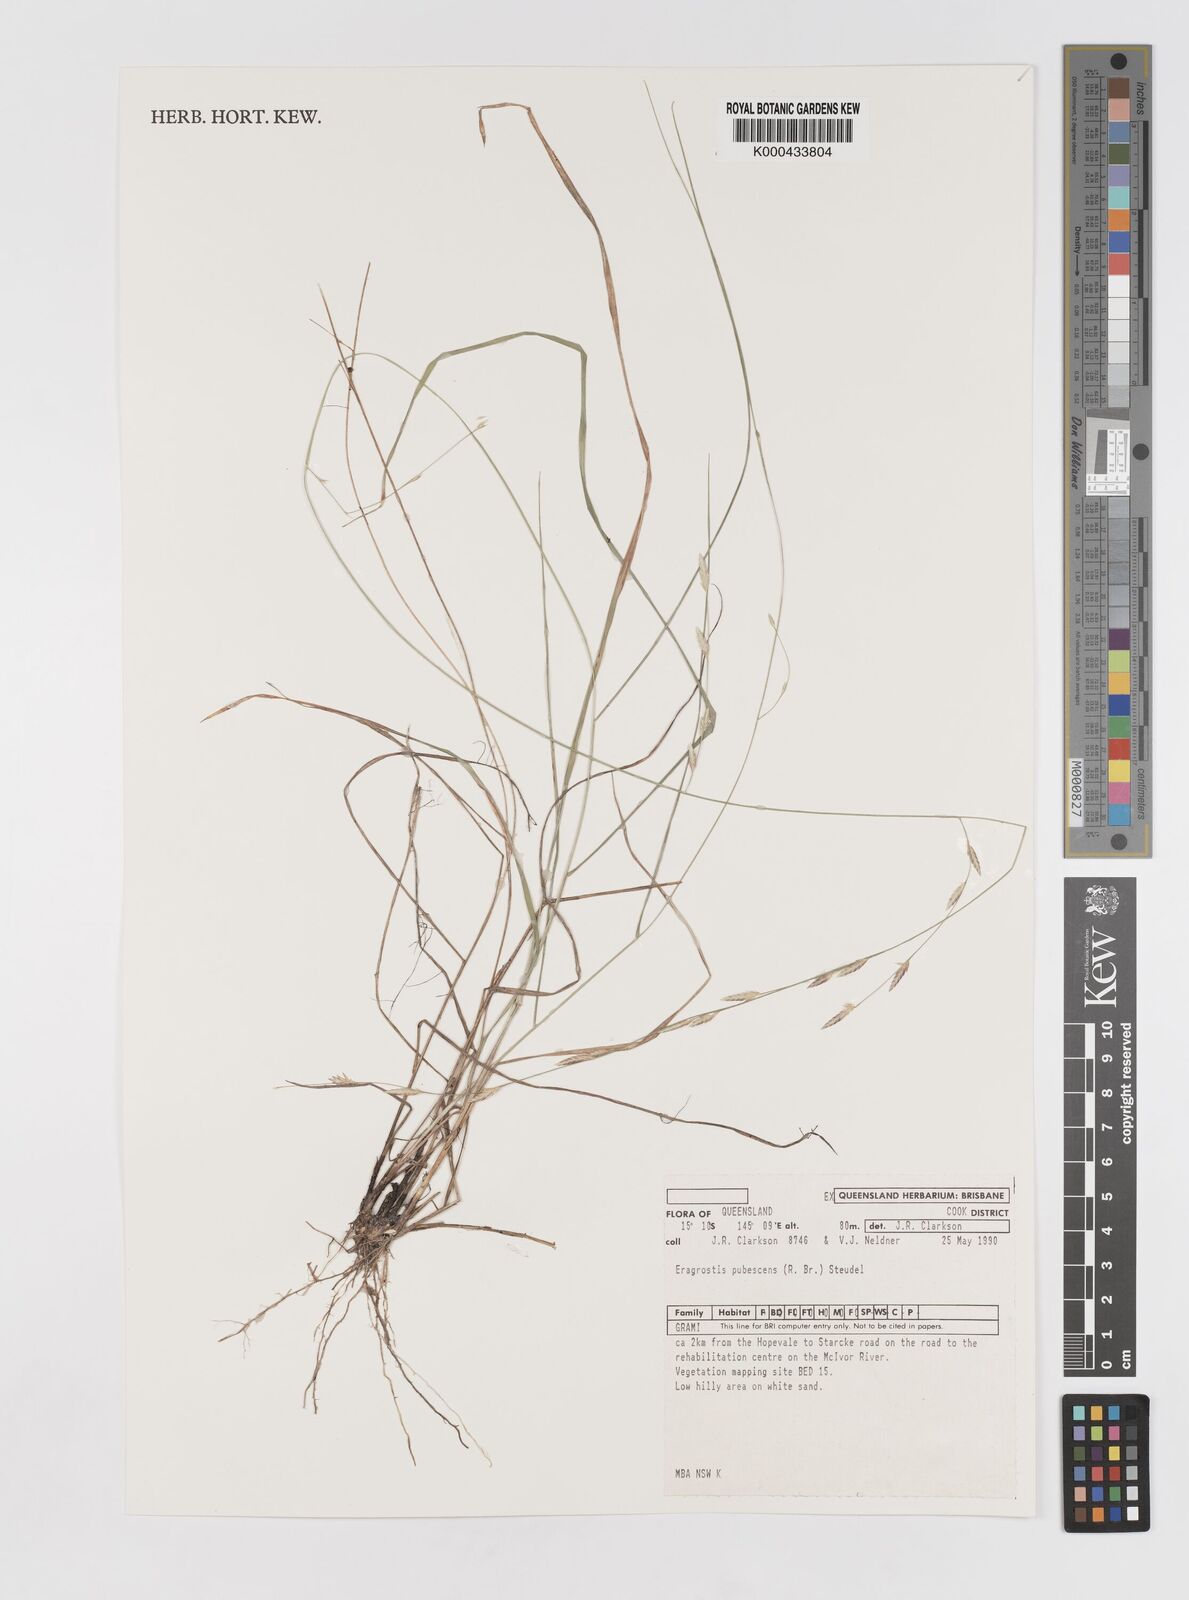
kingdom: Plantae
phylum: Tracheophyta
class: Liliopsida
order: Poales
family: Poaceae
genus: Eragrostis
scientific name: Eragrostis pubescens
